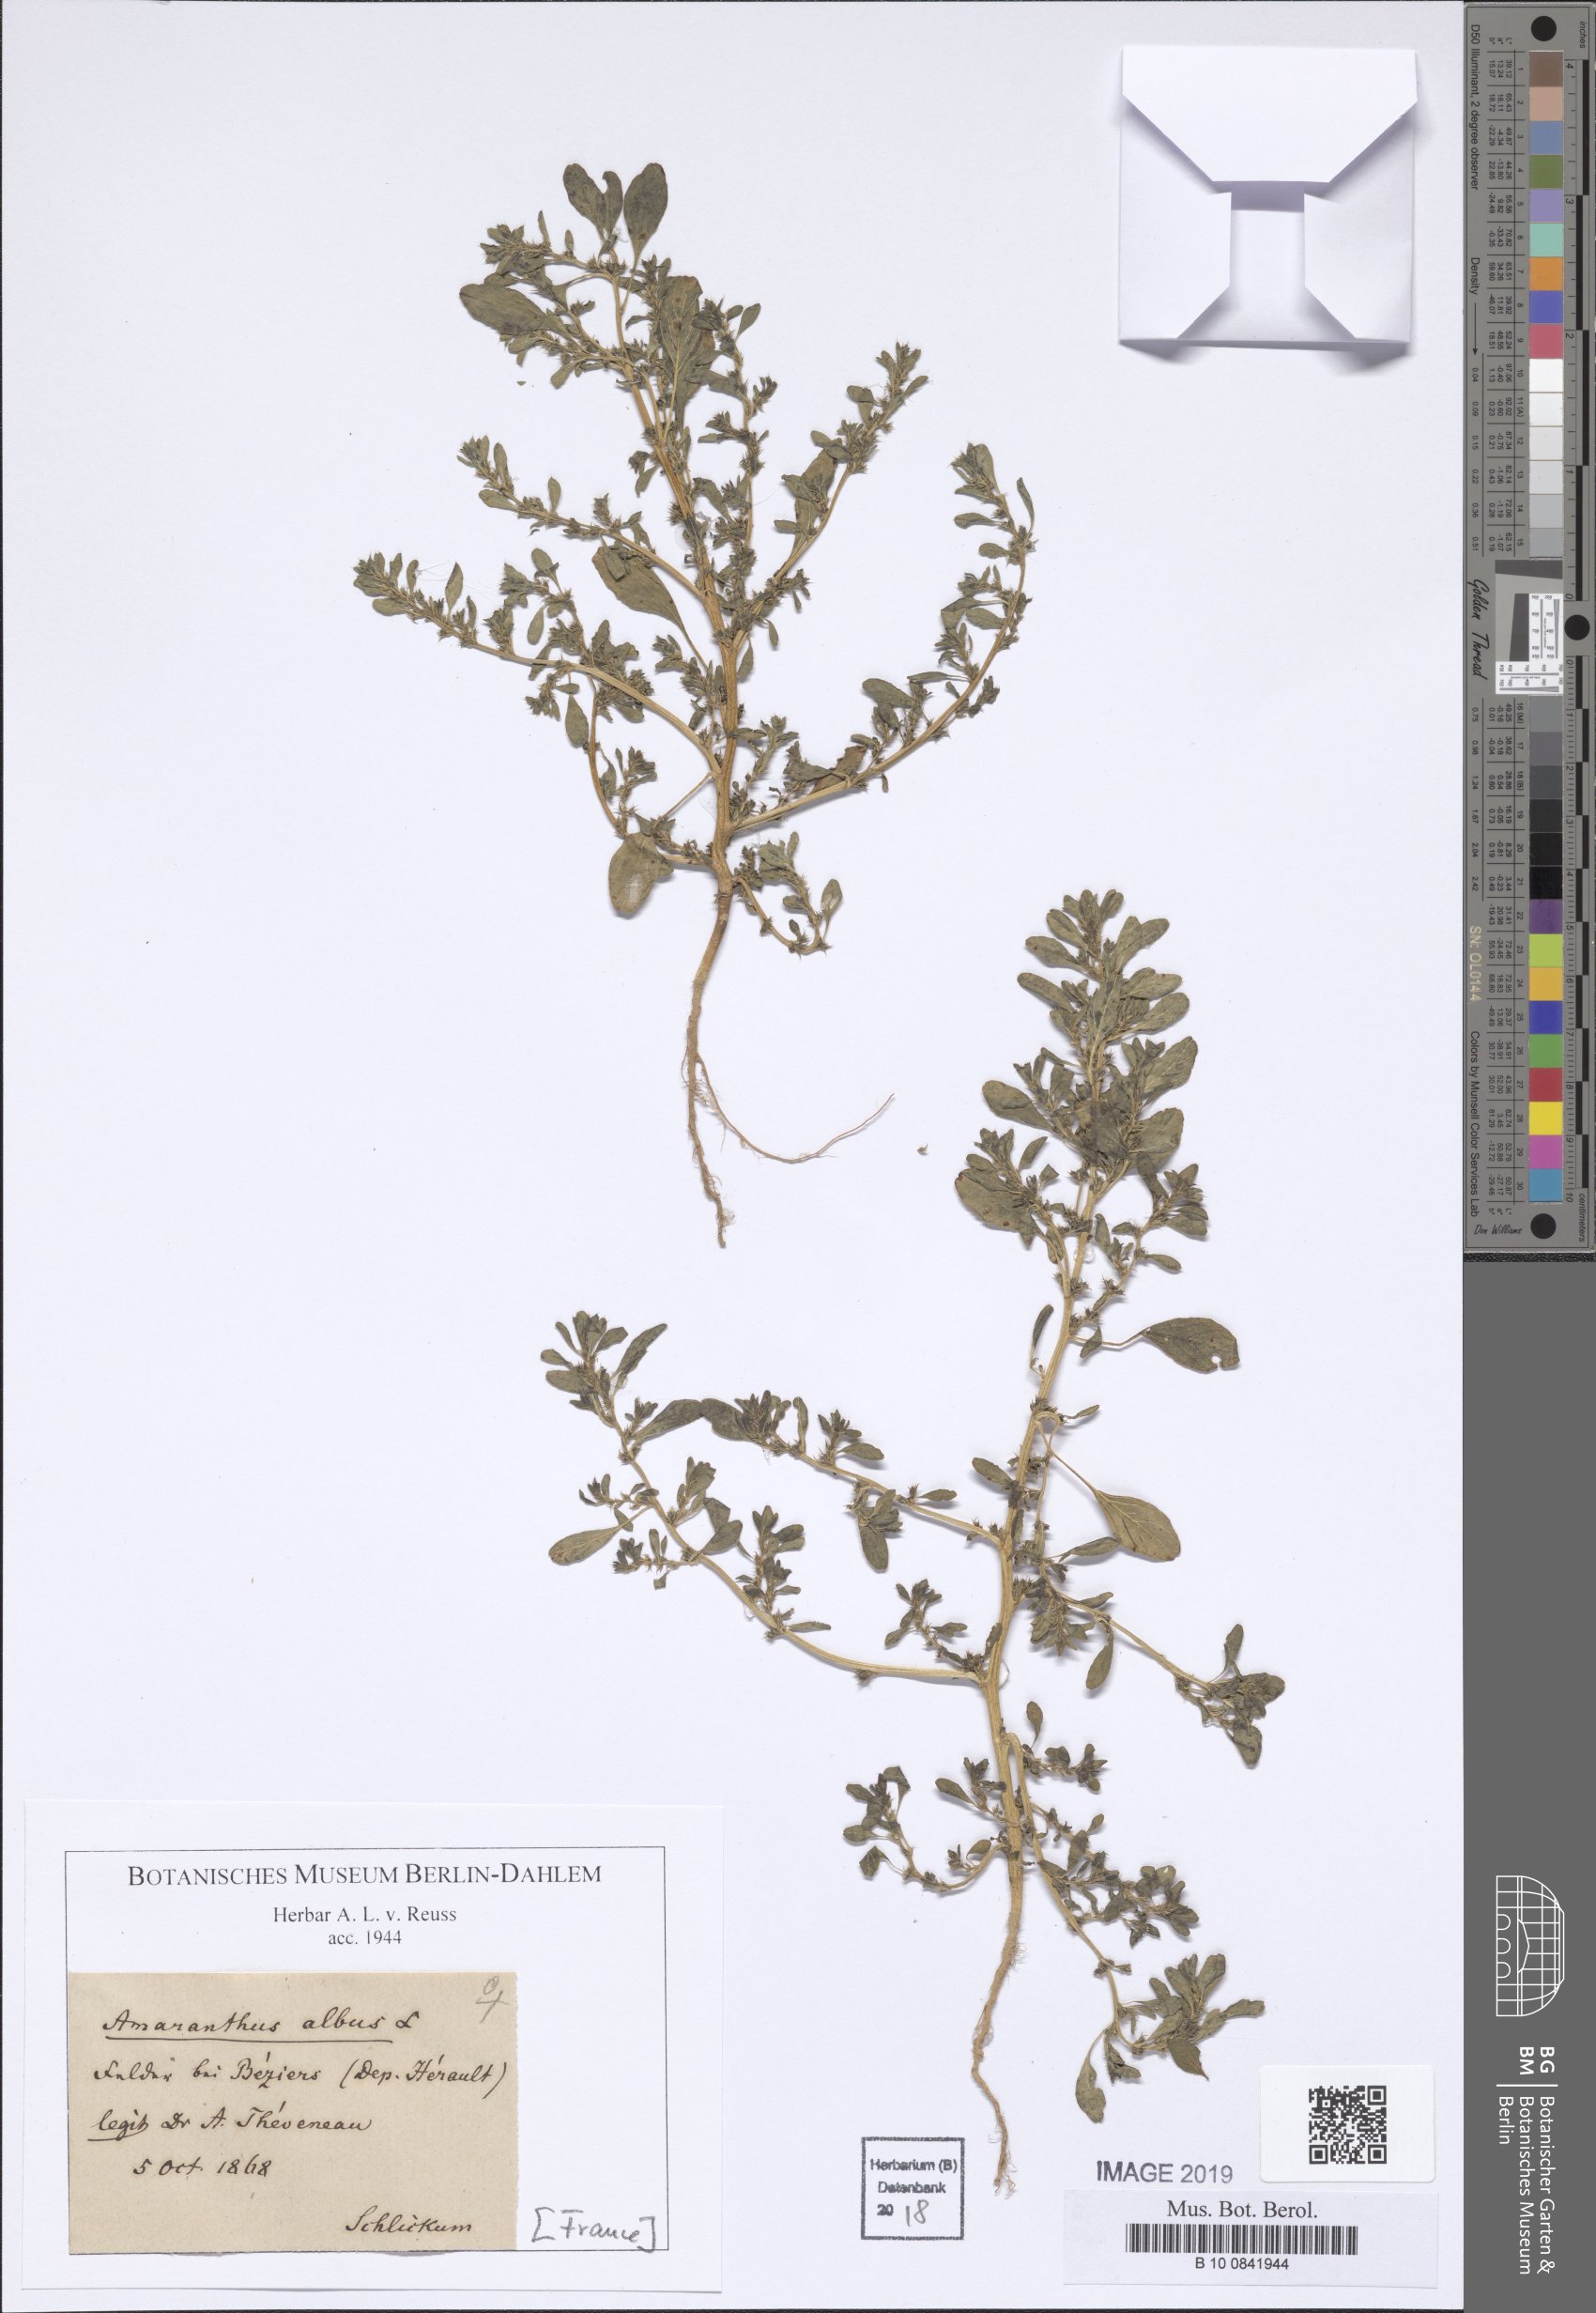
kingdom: Plantae
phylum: Tracheophyta
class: Magnoliopsida
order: Caryophyllales
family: Amaranthaceae
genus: Amaranthus
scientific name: Amaranthus albus
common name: White pigweed
